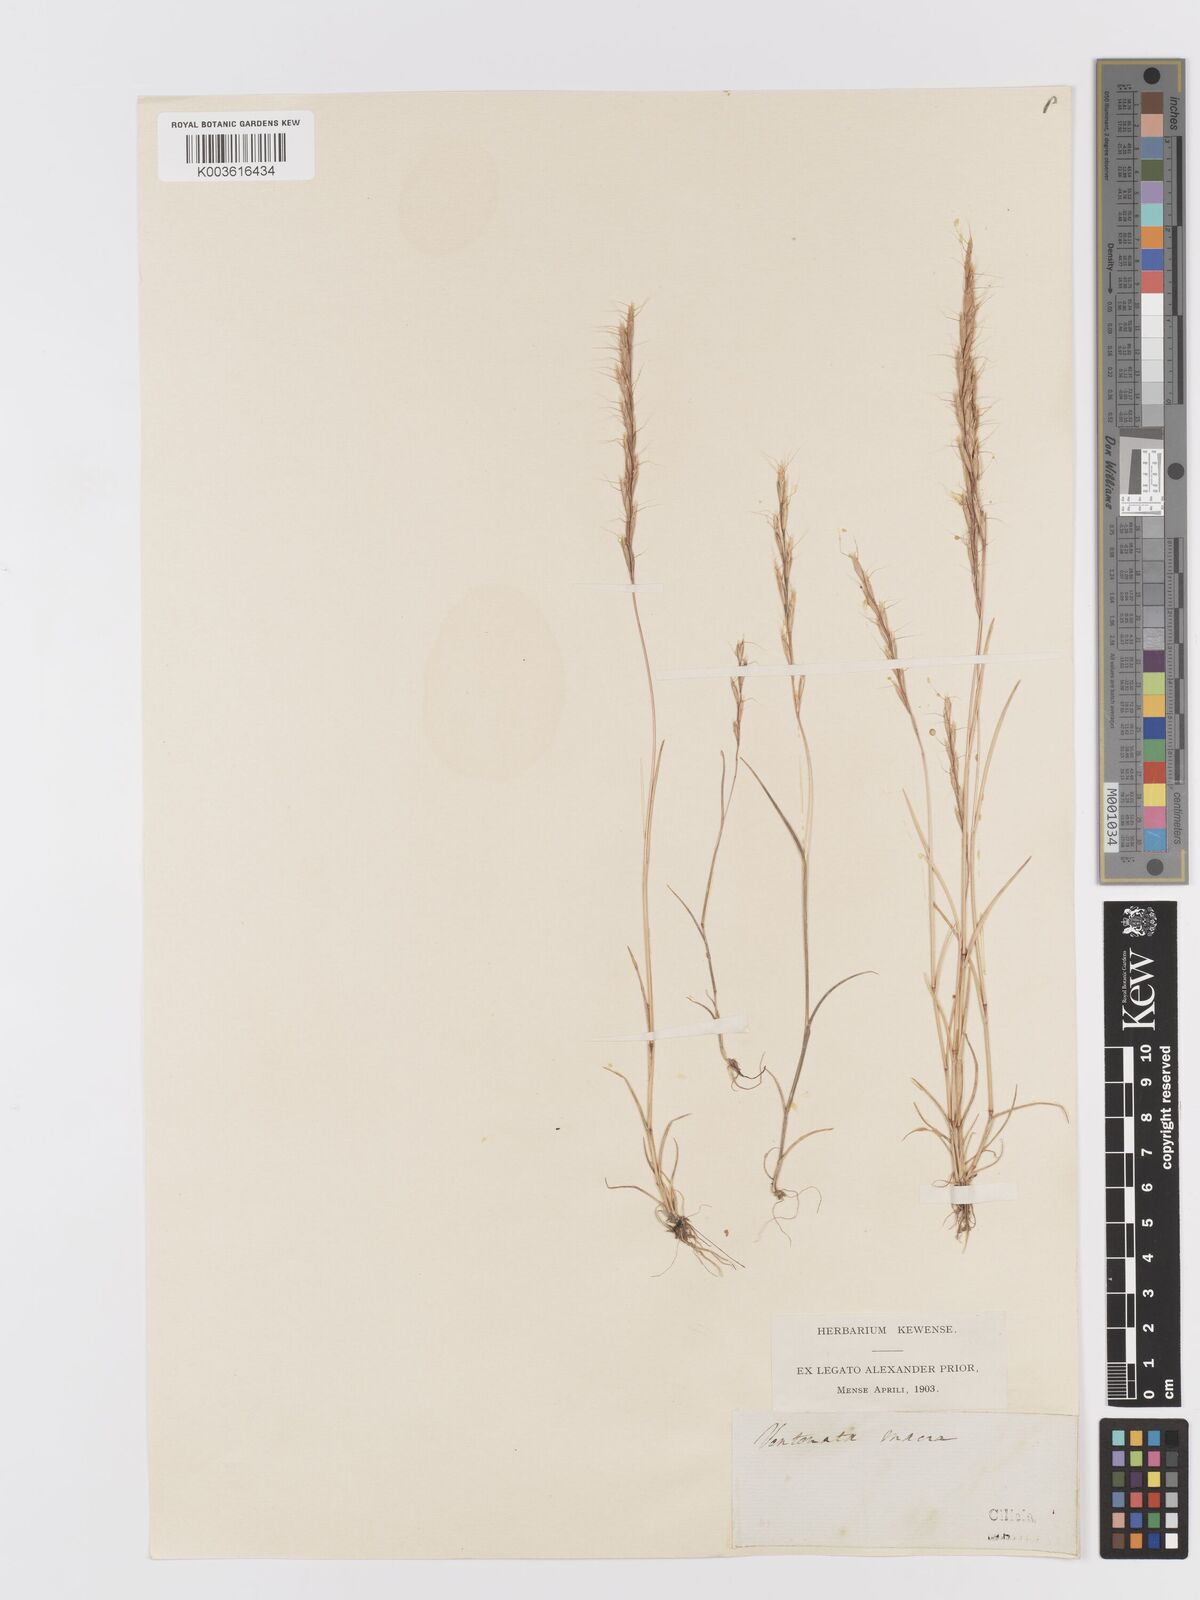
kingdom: Plantae
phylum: Tracheophyta
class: Liliopsida
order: Poales
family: Poaceae
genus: Ventenata
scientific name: Ventenata macra
